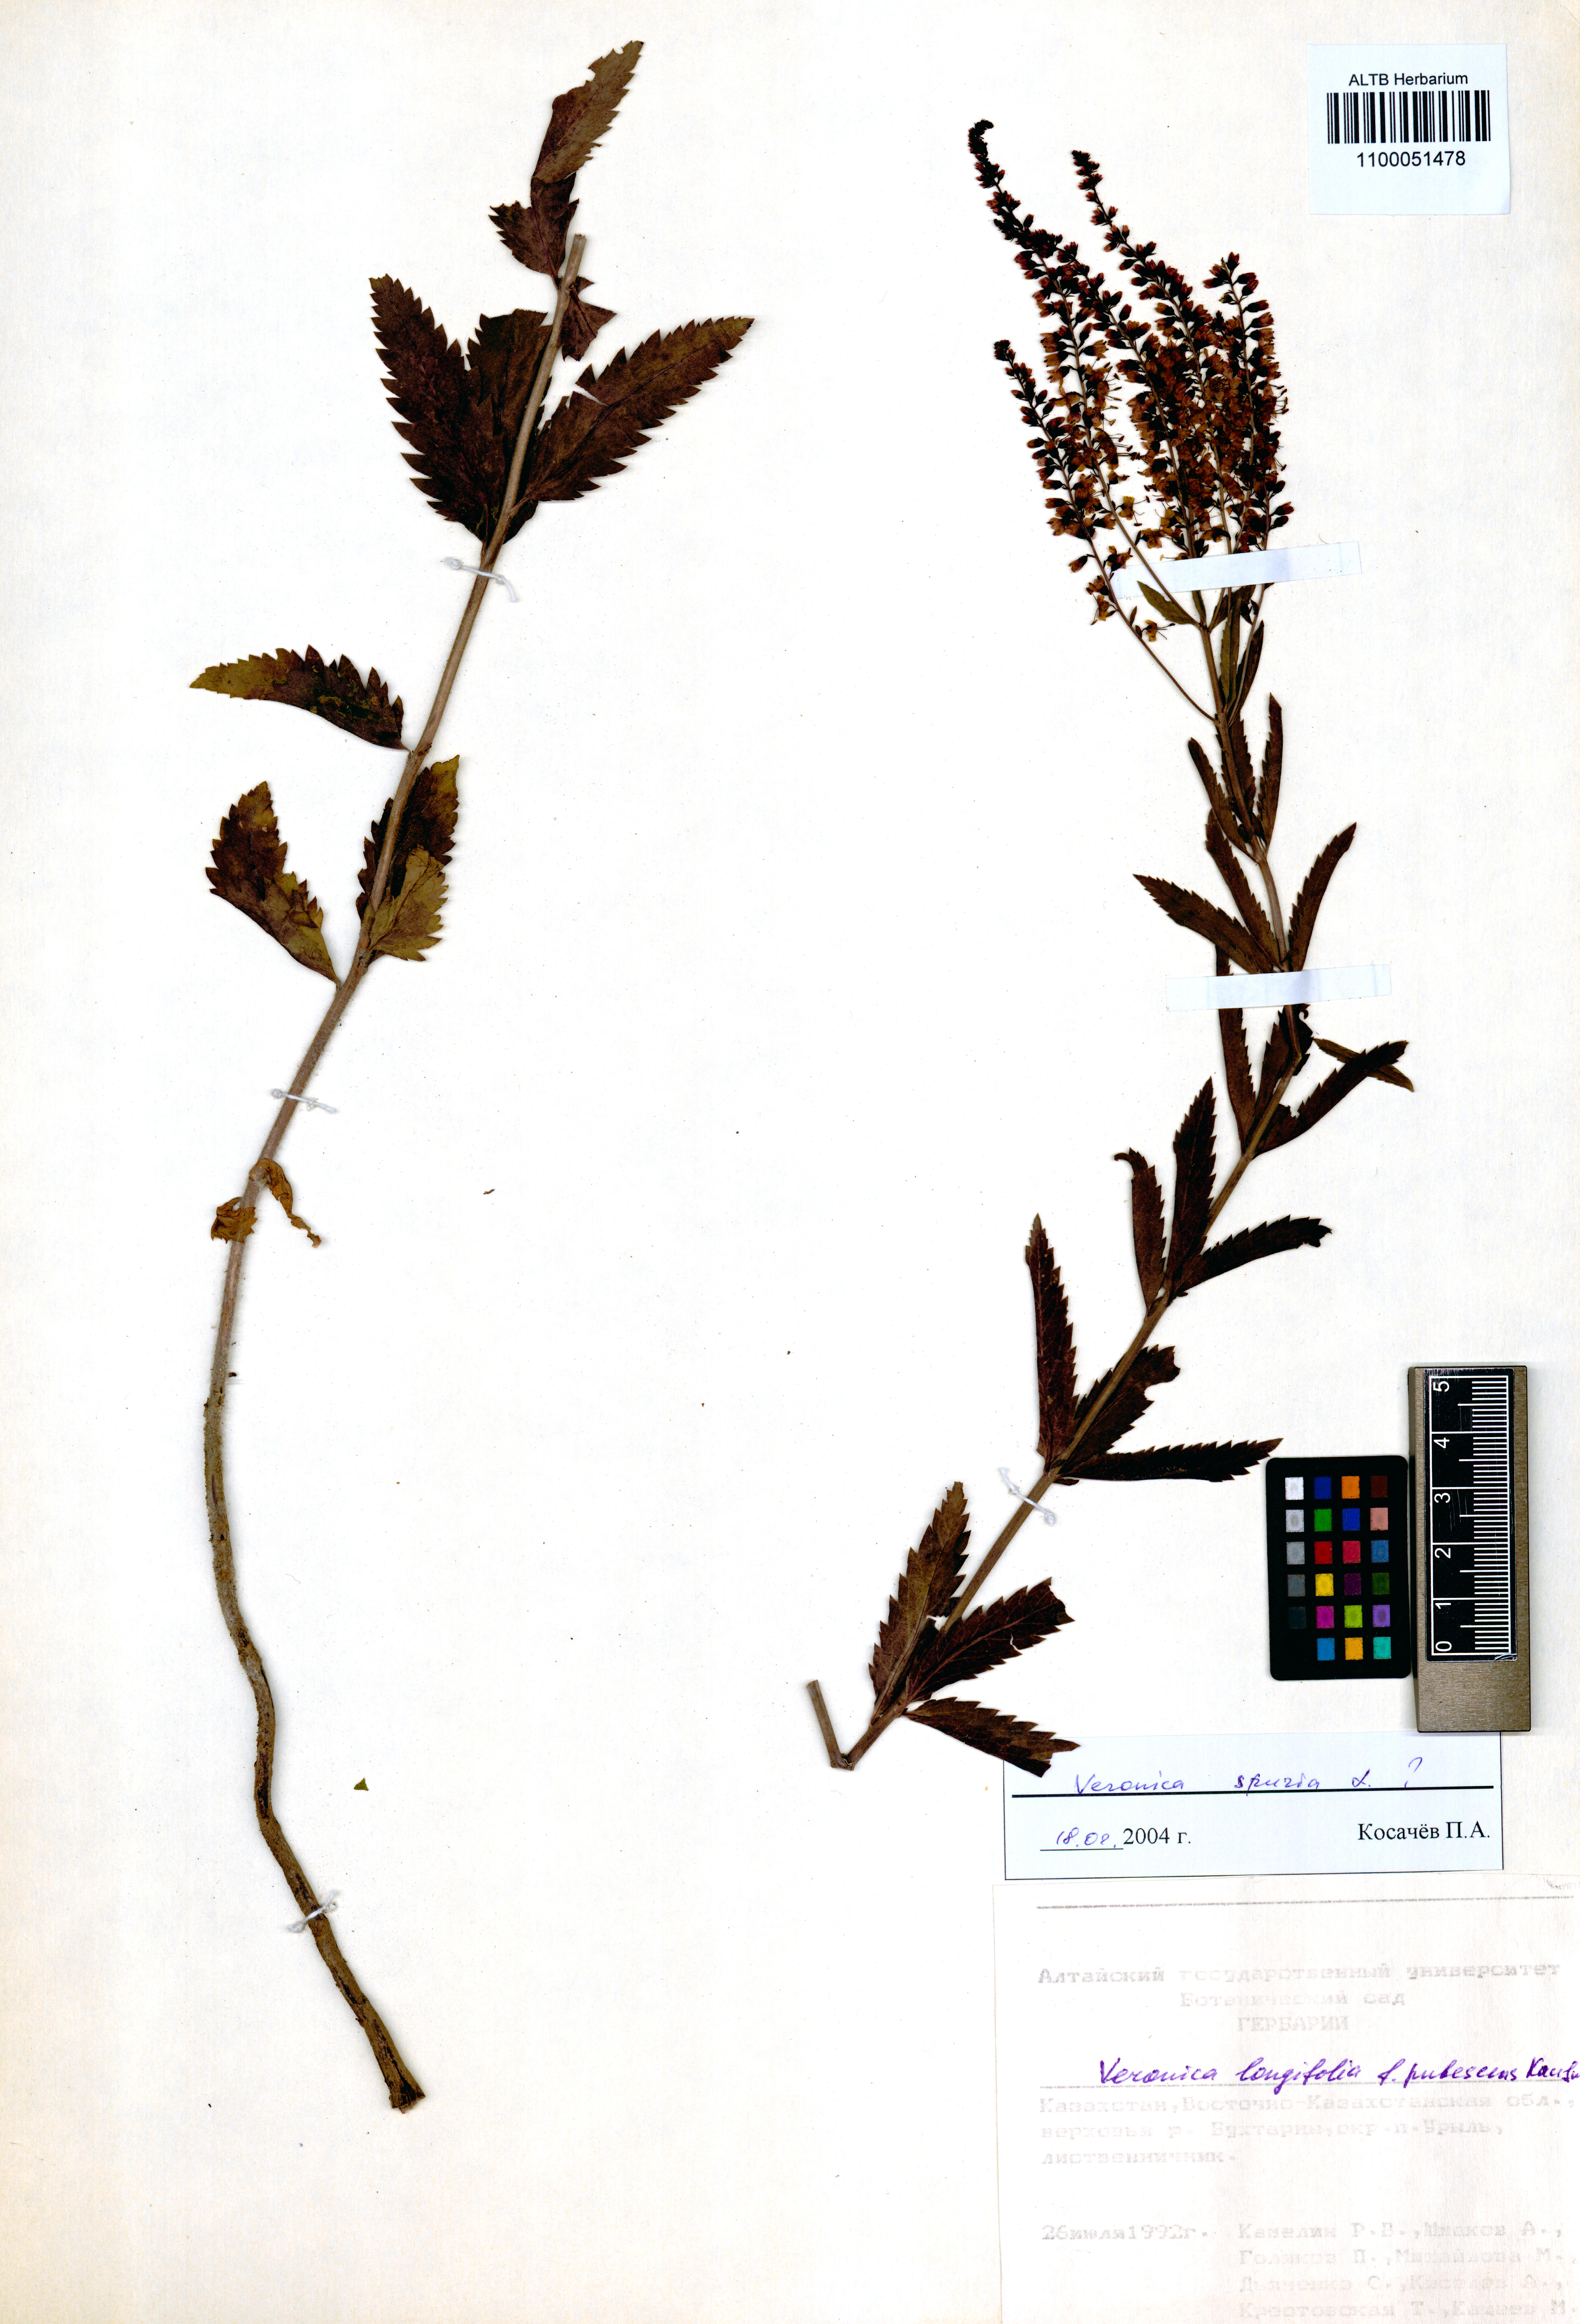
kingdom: Plantae
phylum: Tracheophyta
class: Magnoliopsida
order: Lamiales
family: Plantaginaceae
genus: Veronica
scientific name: Veronica spuria
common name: Bastard speedwell
